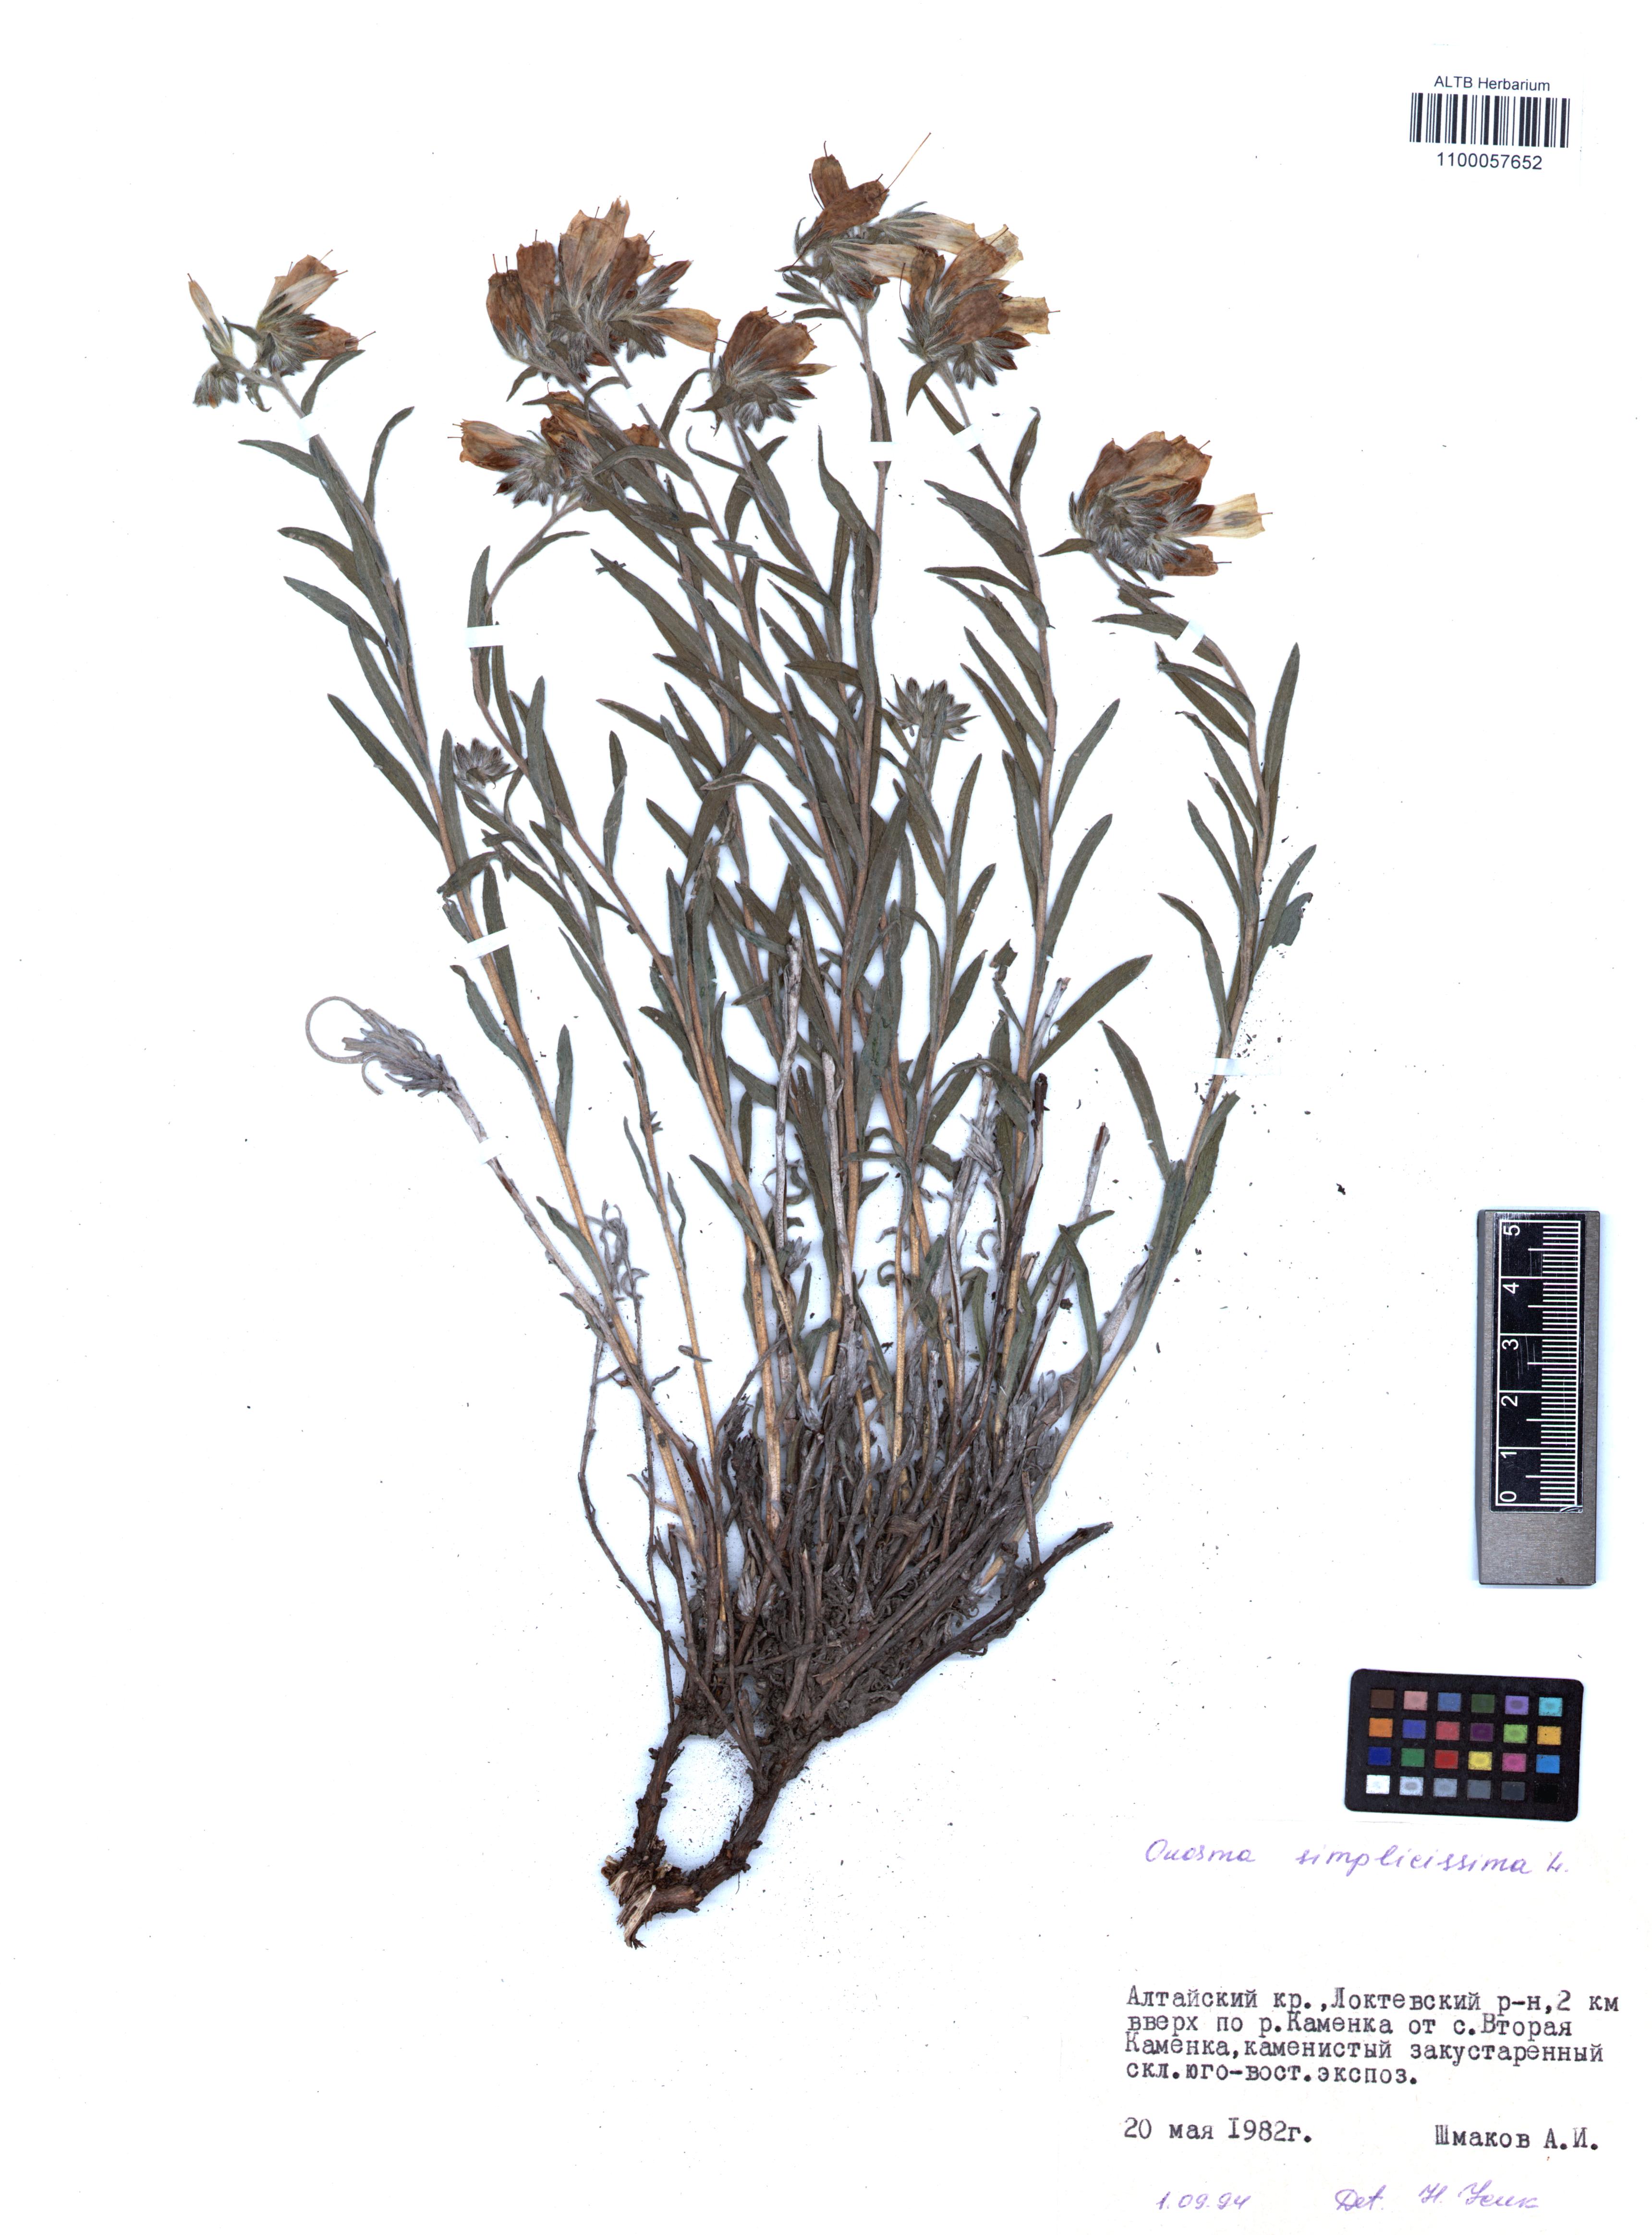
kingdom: Plantae
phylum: Tracheophyta
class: Magnoliopsida
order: Boraginales
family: Boraginaceae
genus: Onosma
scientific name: Onosma simplicissima
